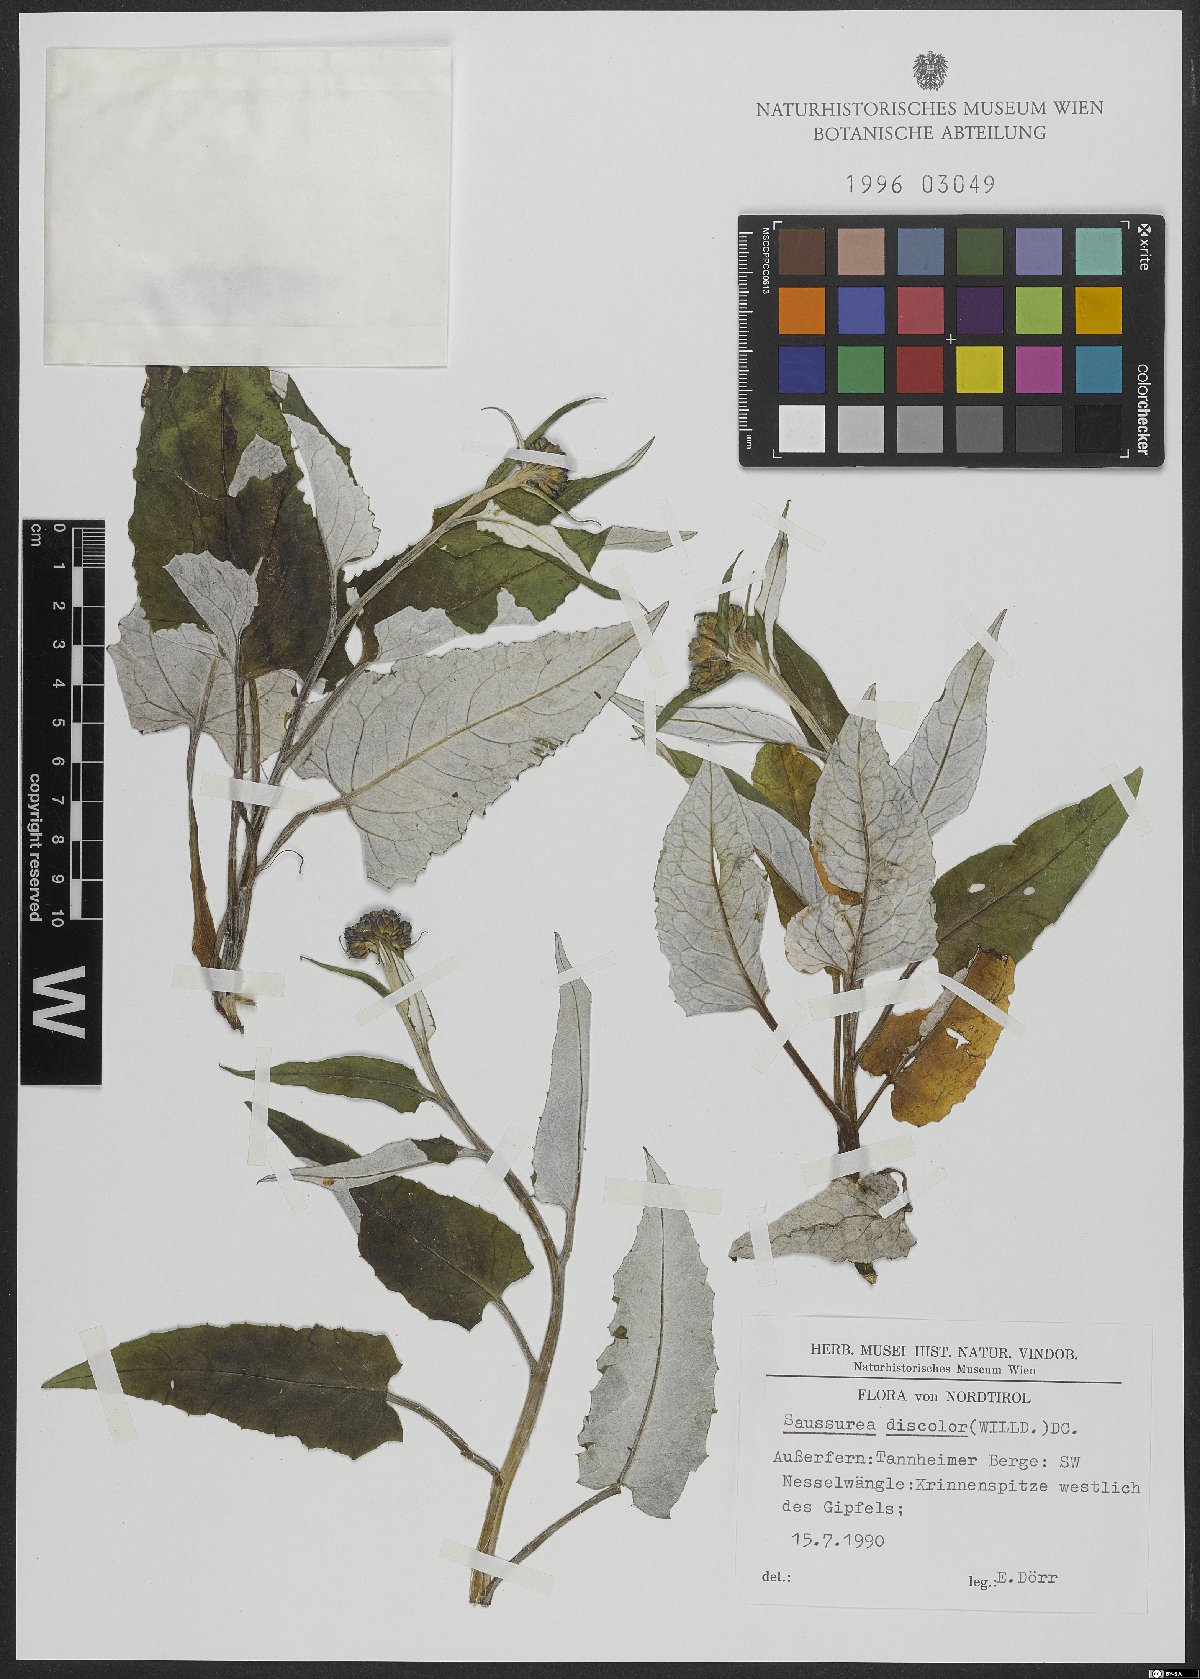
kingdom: Plantae
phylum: Tracheophyta
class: Magnoliopsida
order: Asterales
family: Asteraceae
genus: Saussurea
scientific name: Saussurea discolor
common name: Heart-leaved saussurea
